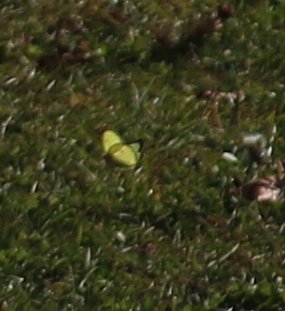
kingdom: Animalia
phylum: Arthropoda
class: Insecta
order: Lepidoptera
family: Pieridae
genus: Colias
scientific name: Colias philodice
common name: Clouded Sulphur
